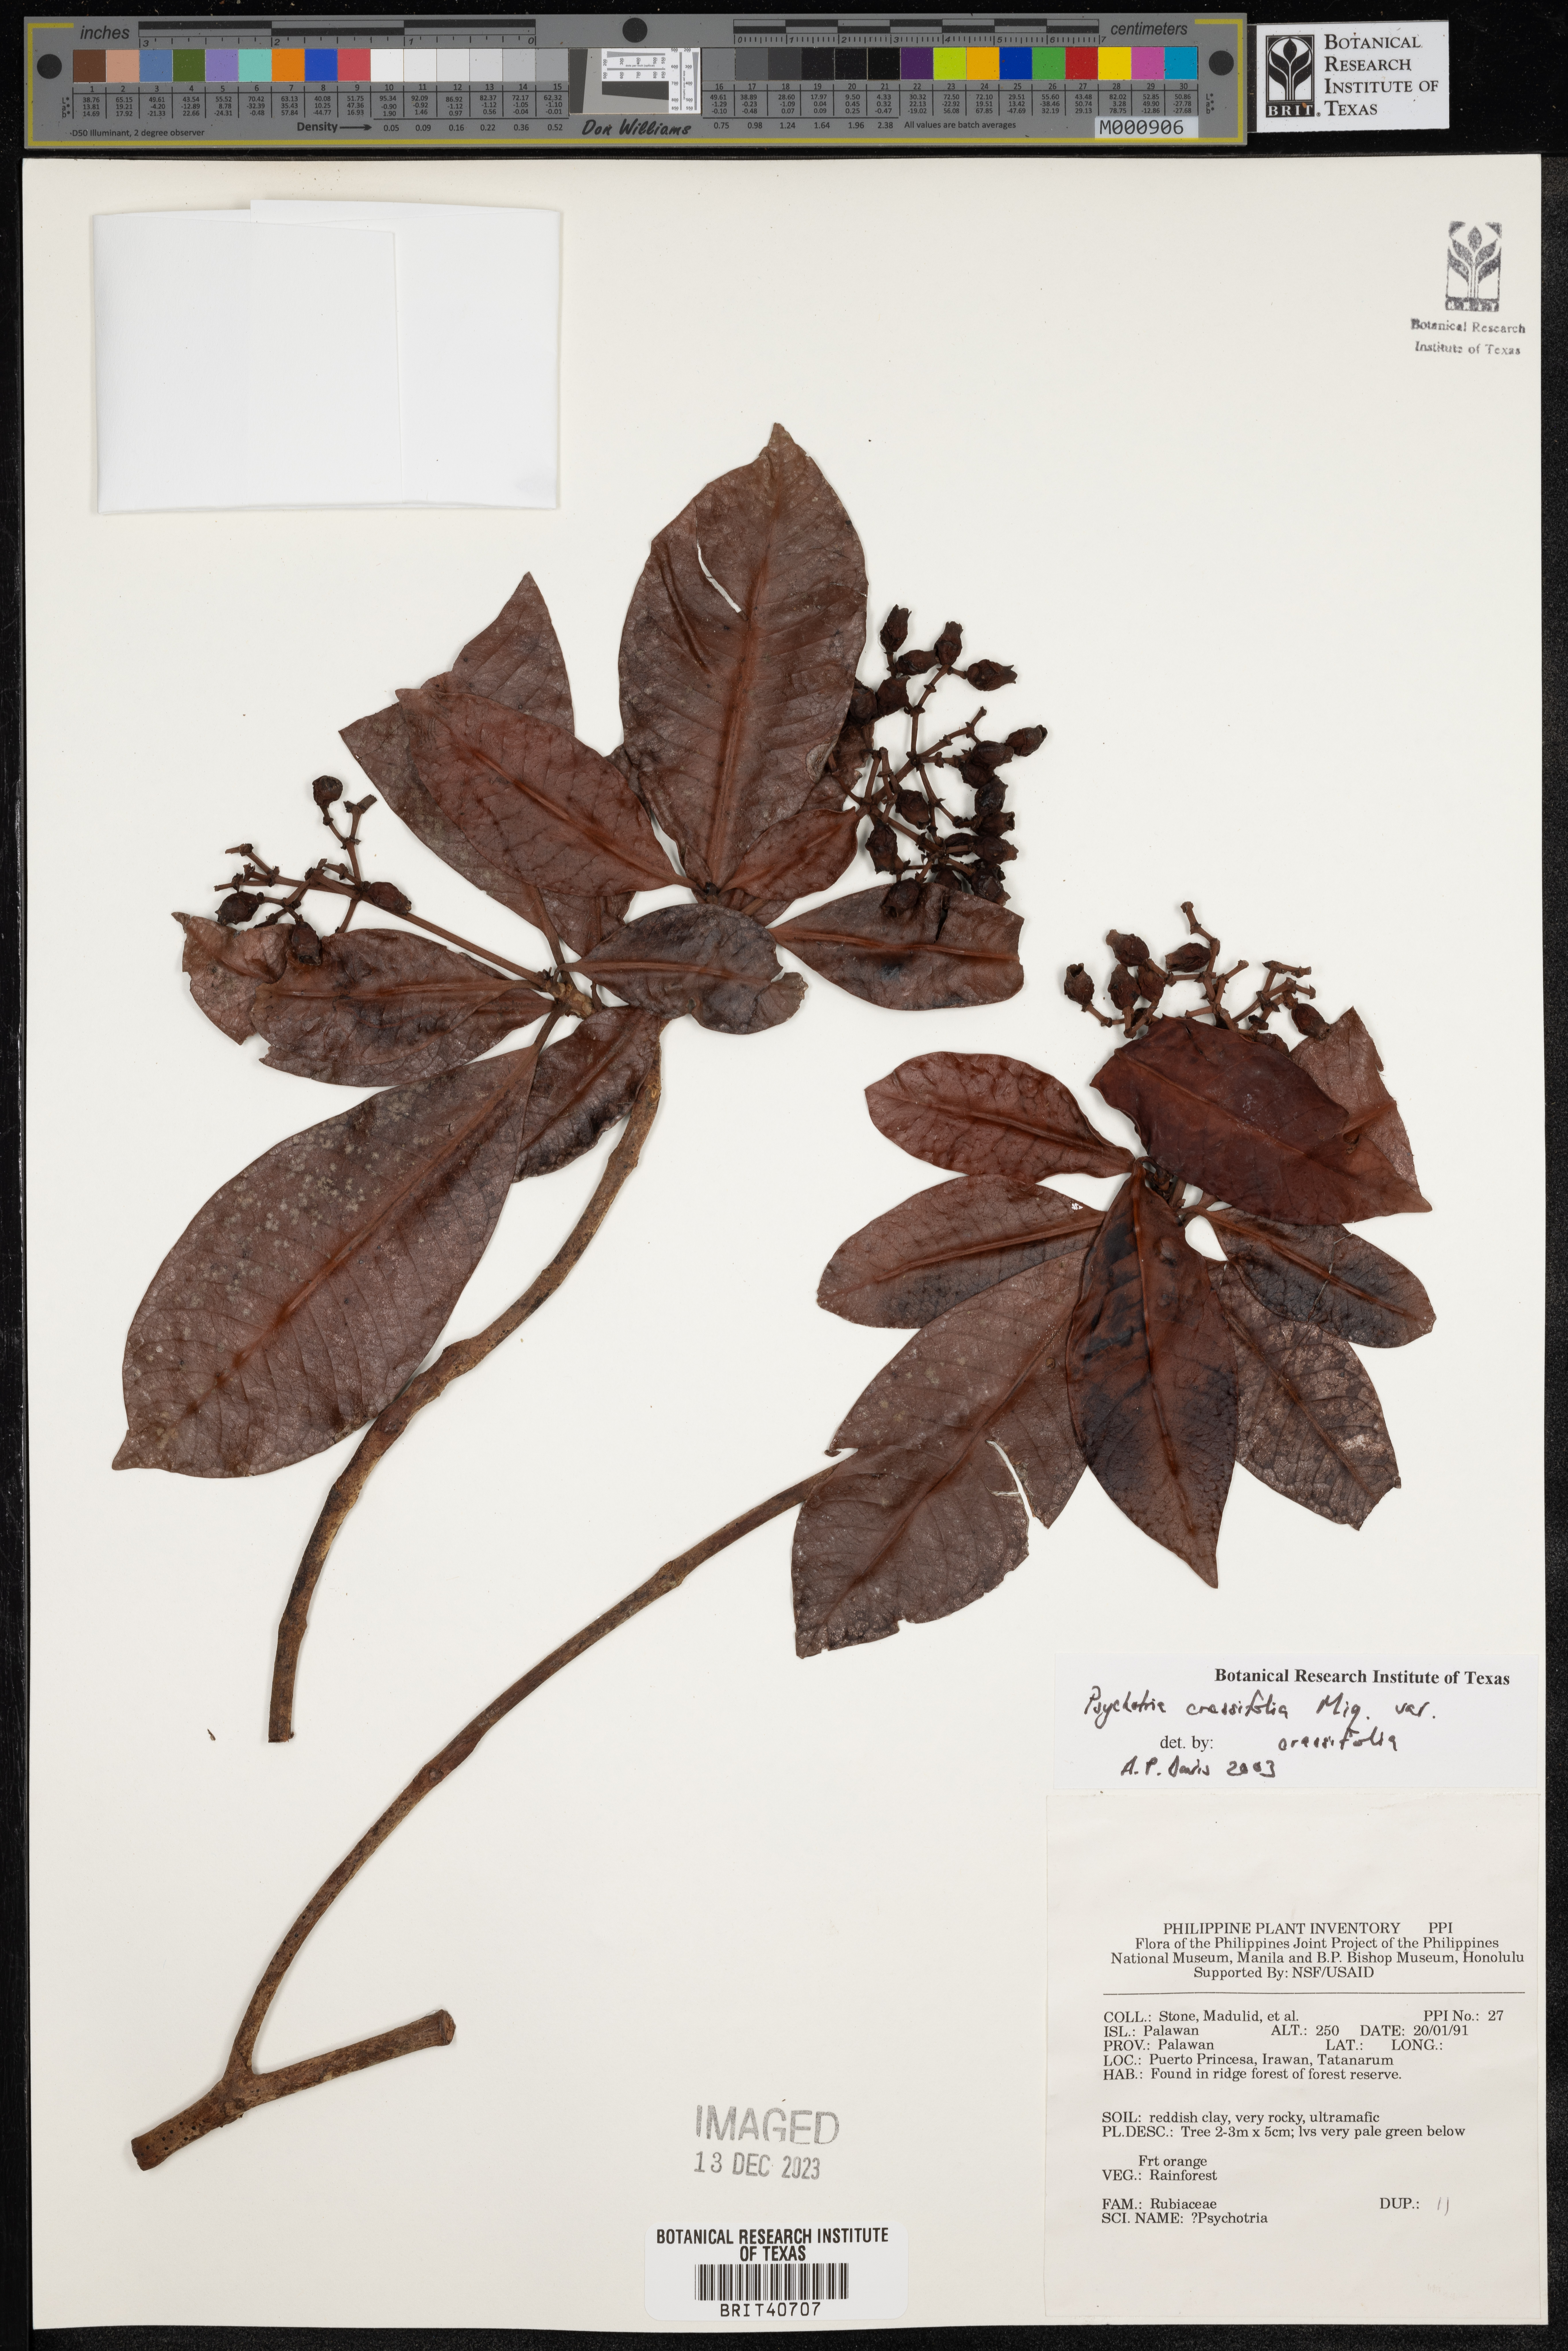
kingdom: Plantae
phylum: Tracheophyta
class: Magnoliopsida
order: Gentianales
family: Rubiaceae
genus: Psychotria
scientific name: Psychotria crassifolia
